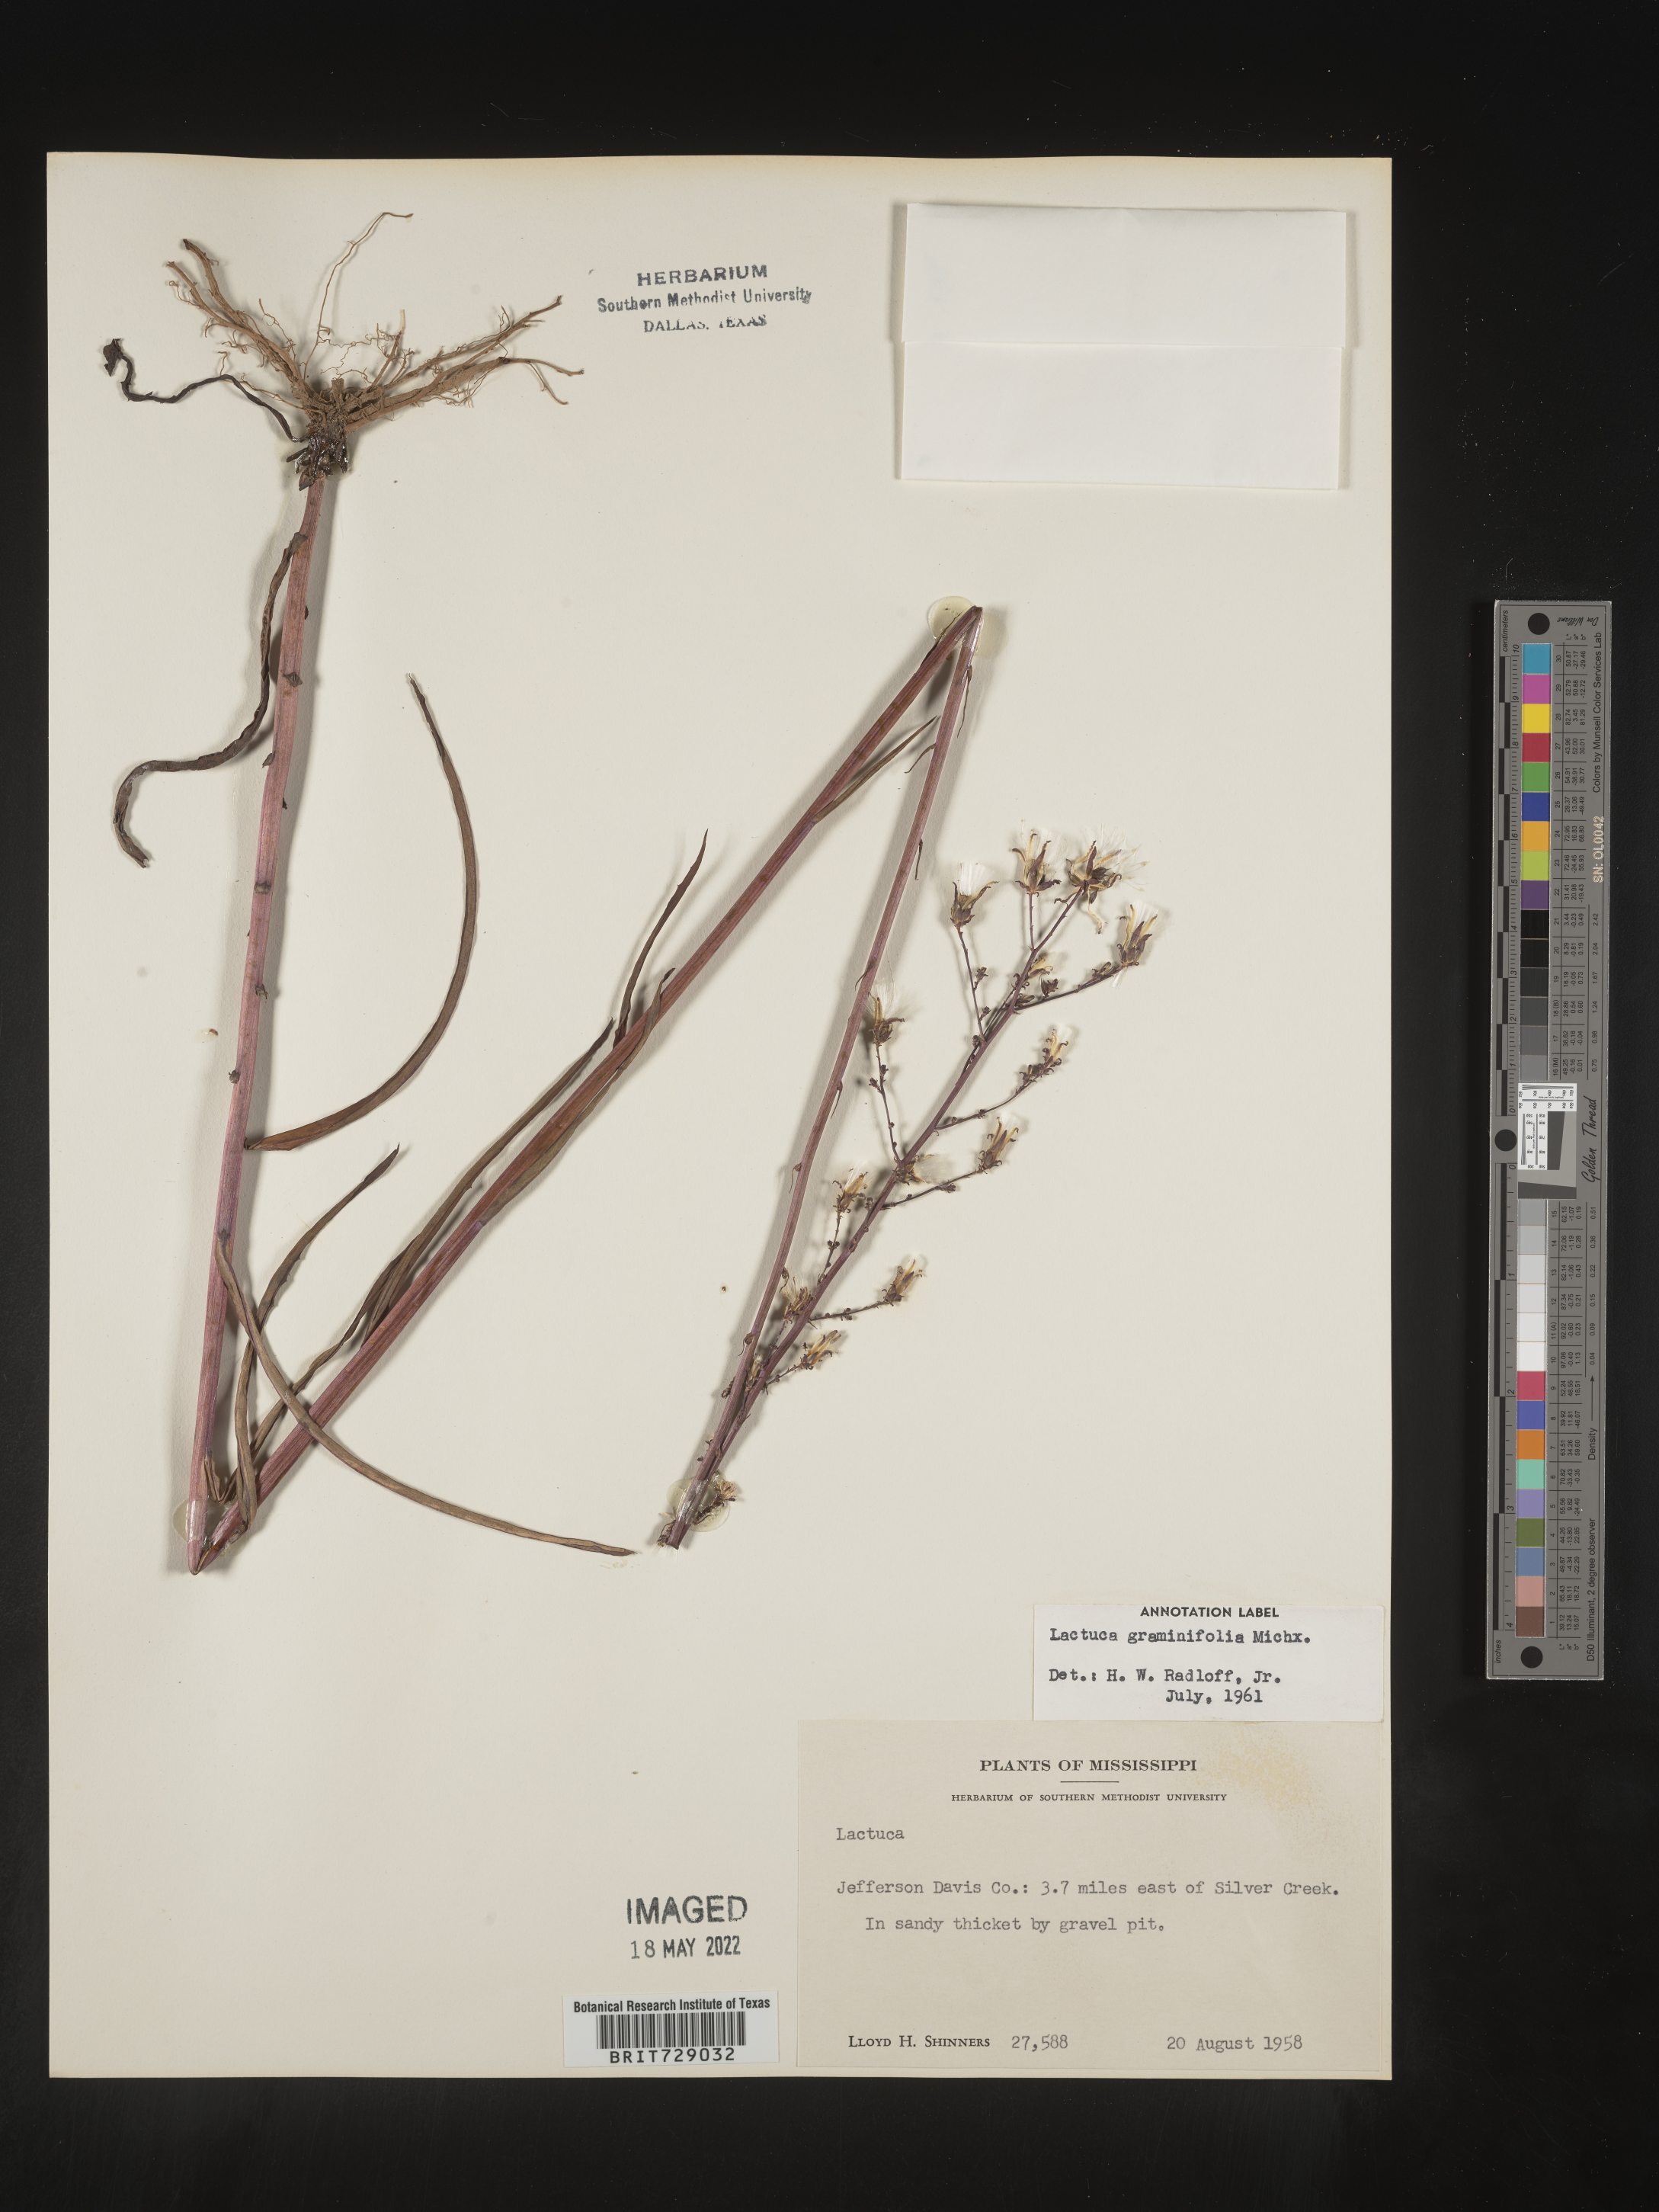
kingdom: Plantae
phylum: Tracheophyta
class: Magnoliopsida
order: Asterales
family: Asteraceae
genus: Lactuca
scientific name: Lactuca graminifolia
